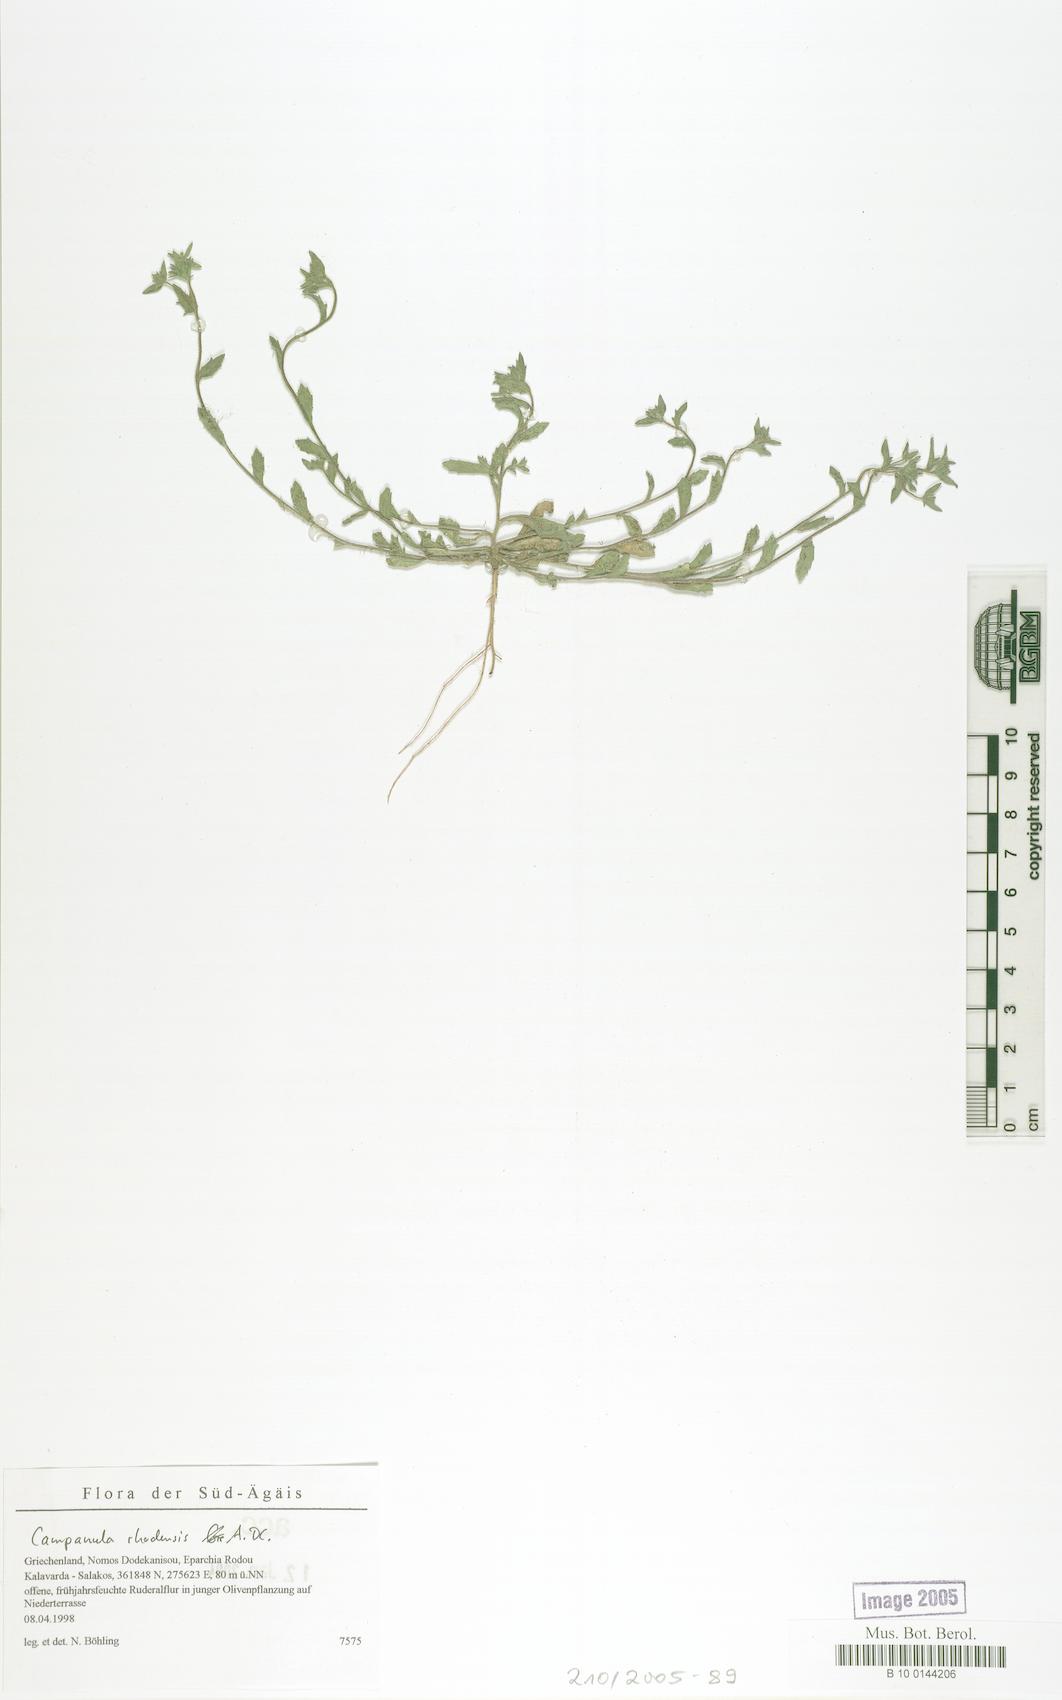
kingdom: Plantae
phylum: Tracheophyta
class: Magnoliopsida
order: Asterales
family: Campanulaceae
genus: Campanula
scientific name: Campanula rhodensis
